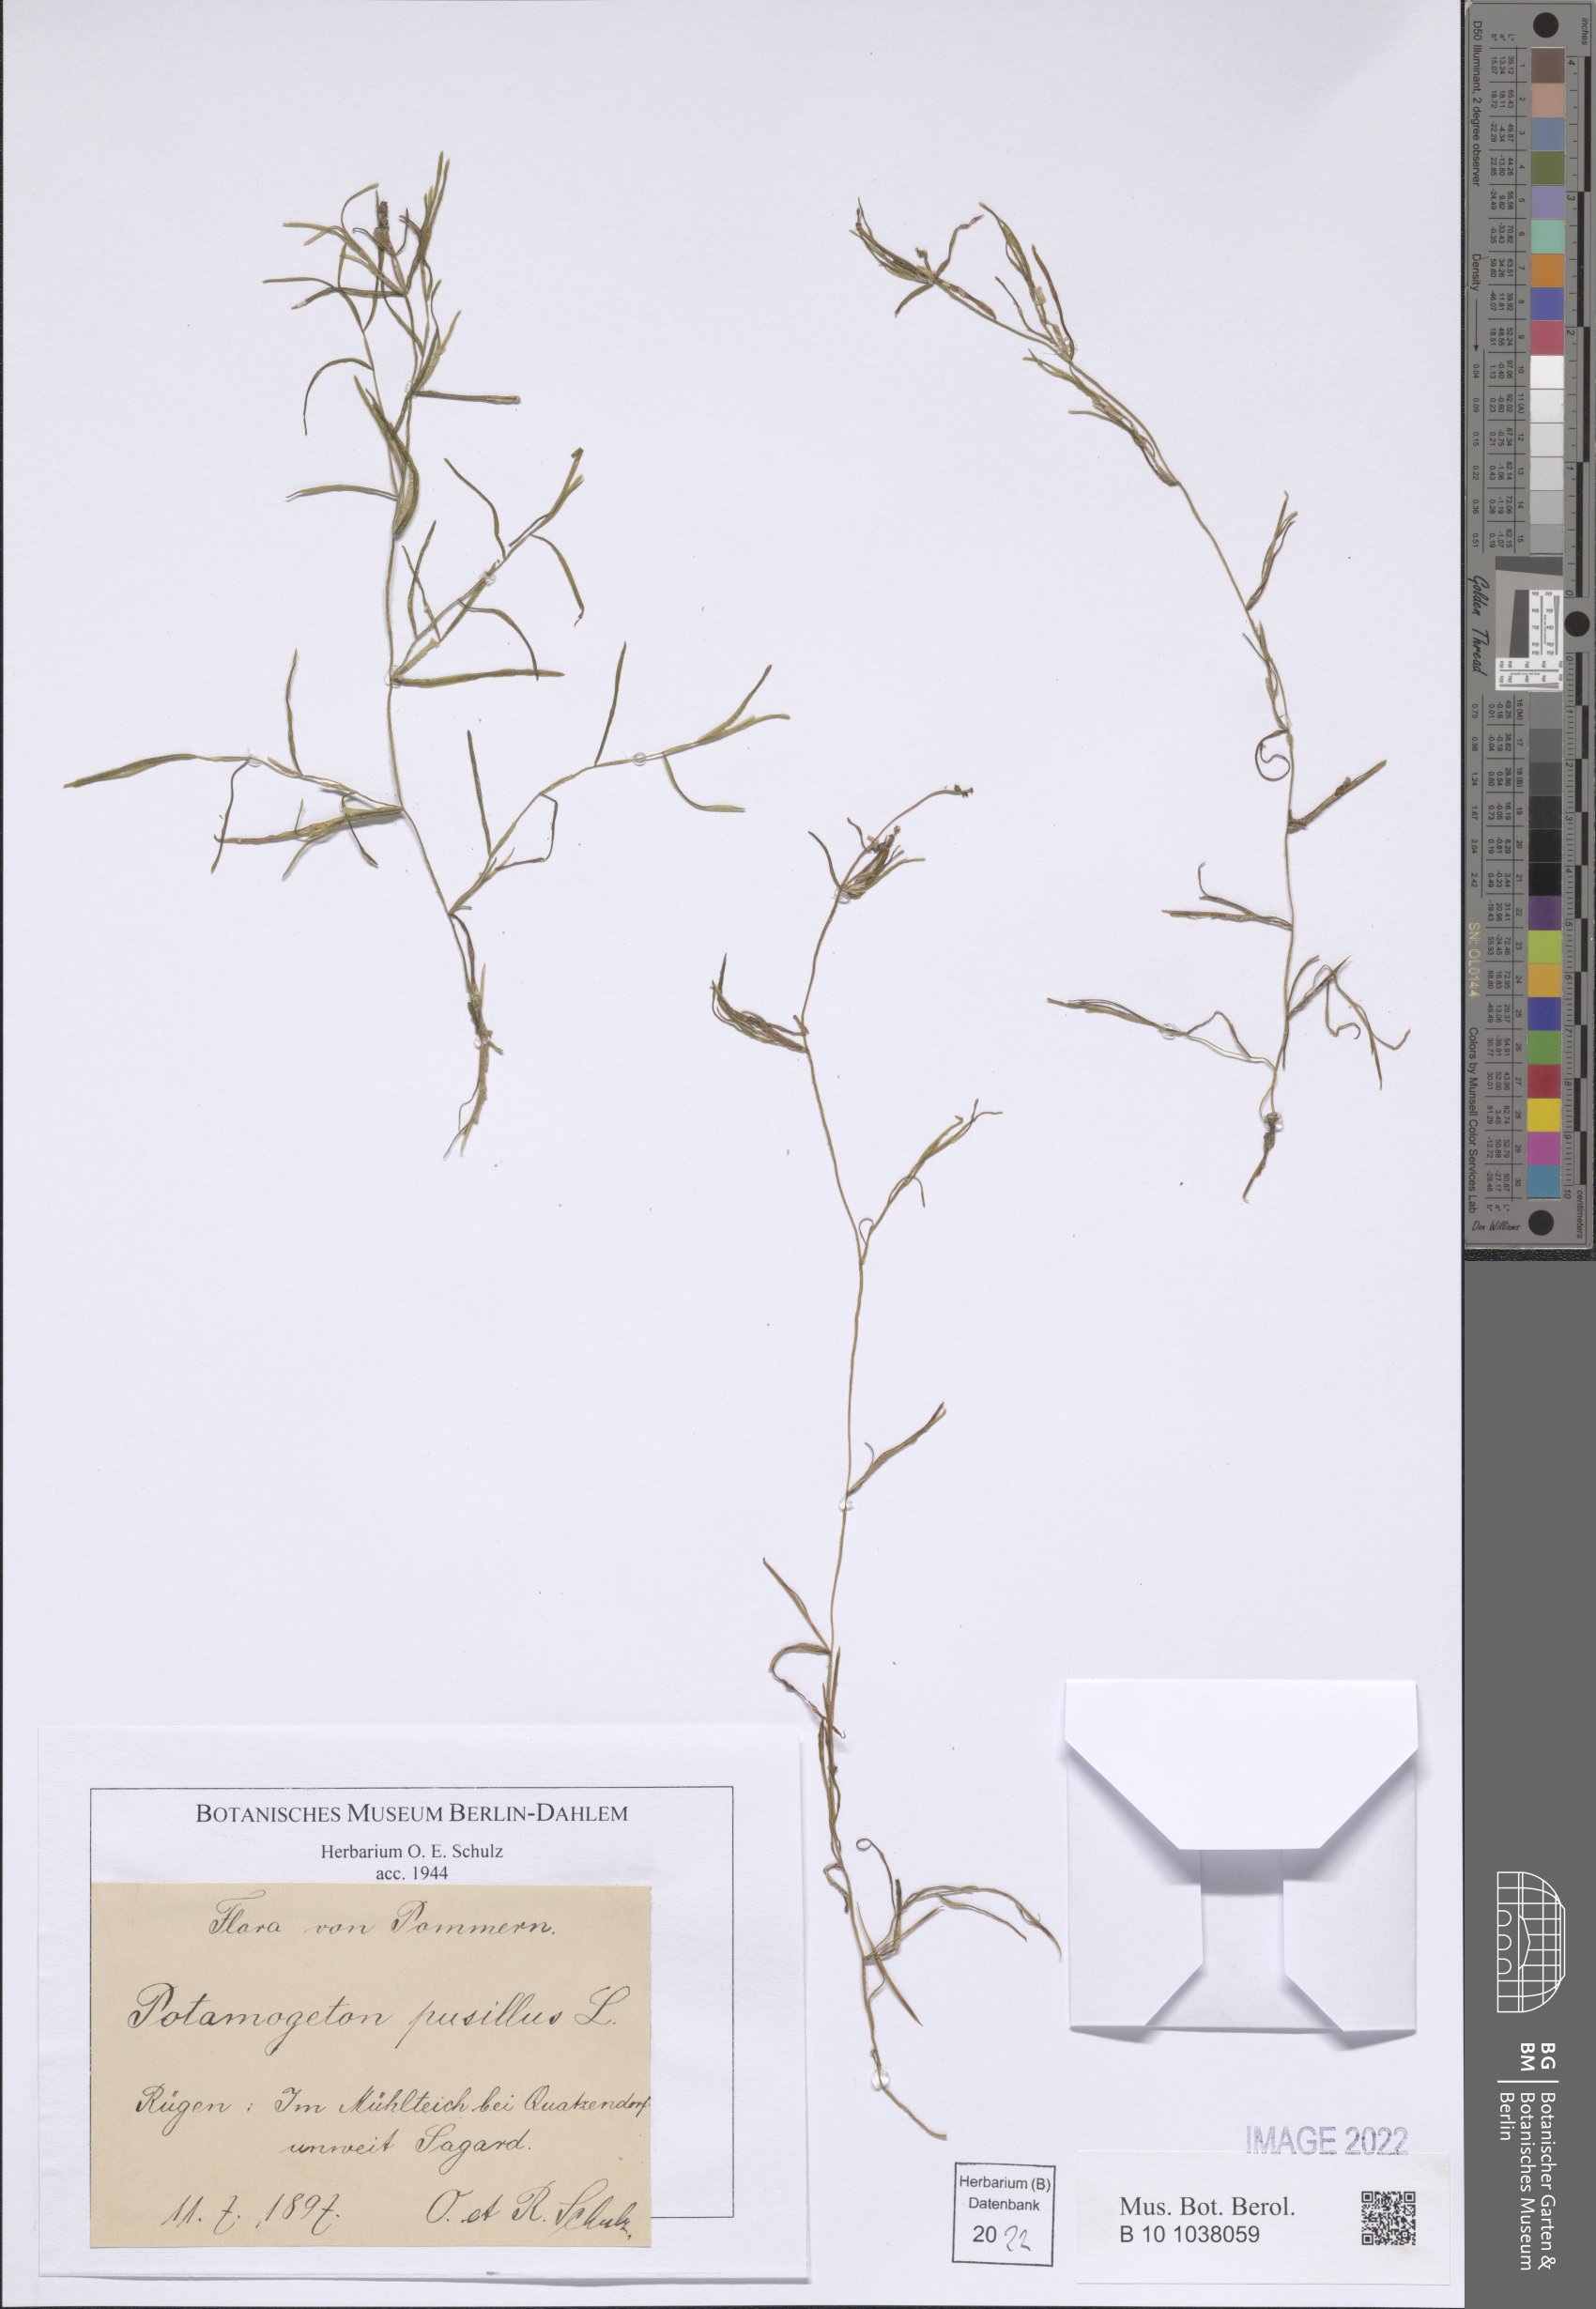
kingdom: Plantae
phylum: Tracheophyta
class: Liliopsida
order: Alismatales
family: Potamogetonaceae
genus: Potamogeton
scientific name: Potamogeton pusillus
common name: Lesser pondweed
